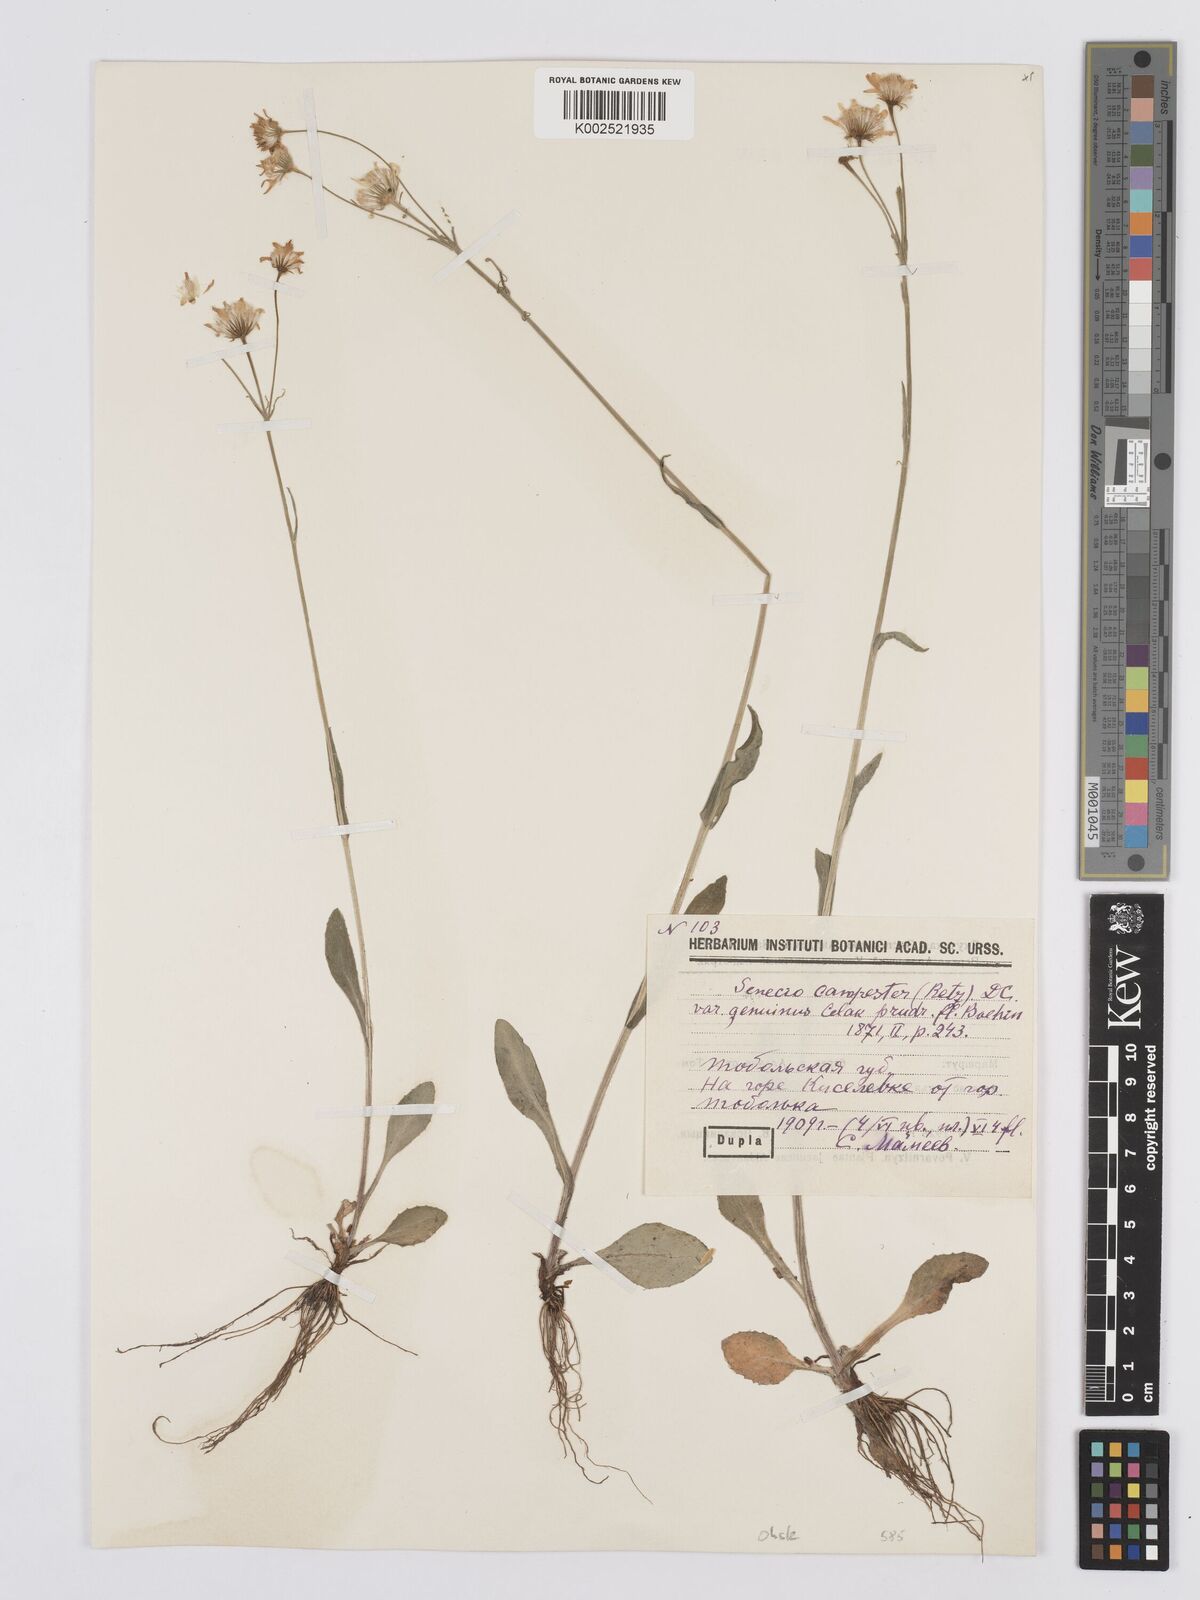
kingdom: Plantae
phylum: Tracheophyta
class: Magnoliopsida
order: Asterales
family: Asteraceae
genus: Tephroseris
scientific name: Tephroseris integrifolia
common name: Field fleawort
